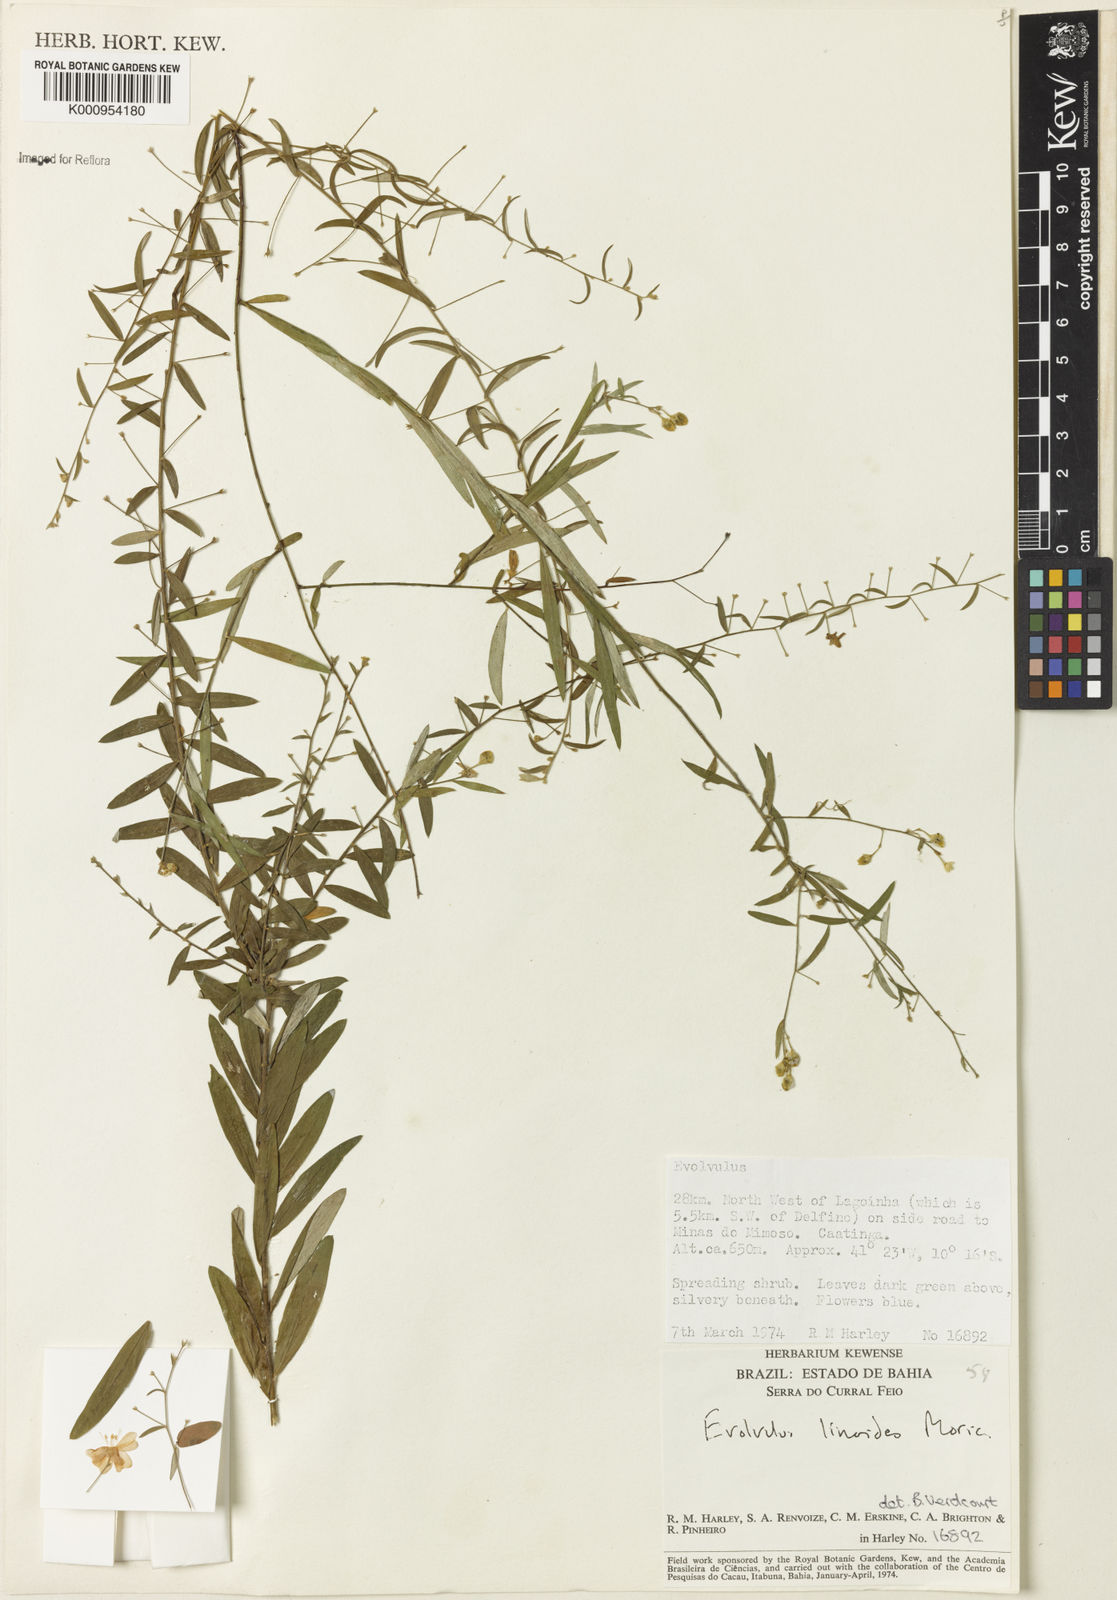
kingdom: Plantae
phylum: Tracheophyta
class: Magnoliopsida
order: Solanales
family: Convolvulaceae
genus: Evolvulus
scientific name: Evolvulus linoides
